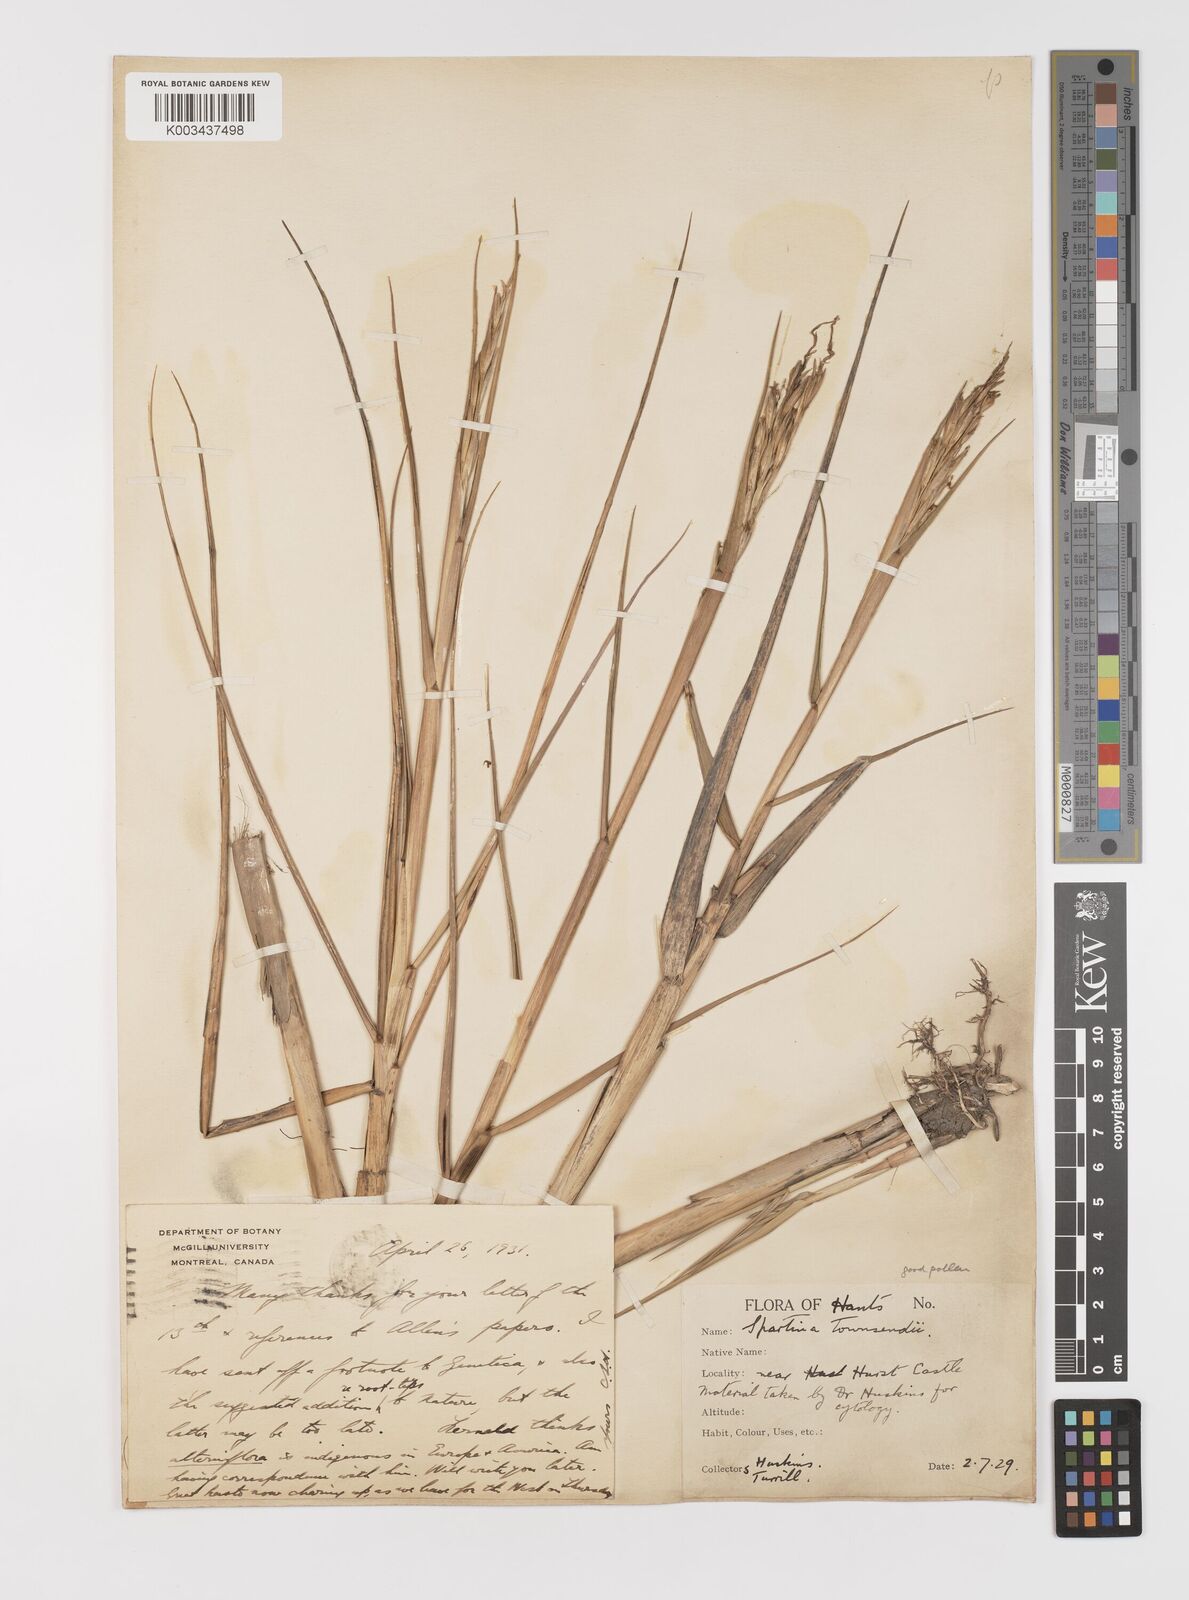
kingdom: Plantae
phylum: Tracheophyta
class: Liliopsida
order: Poales
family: Poaceae
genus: Sporobolus
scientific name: Sporobolus anglicus
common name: English cordgrass
